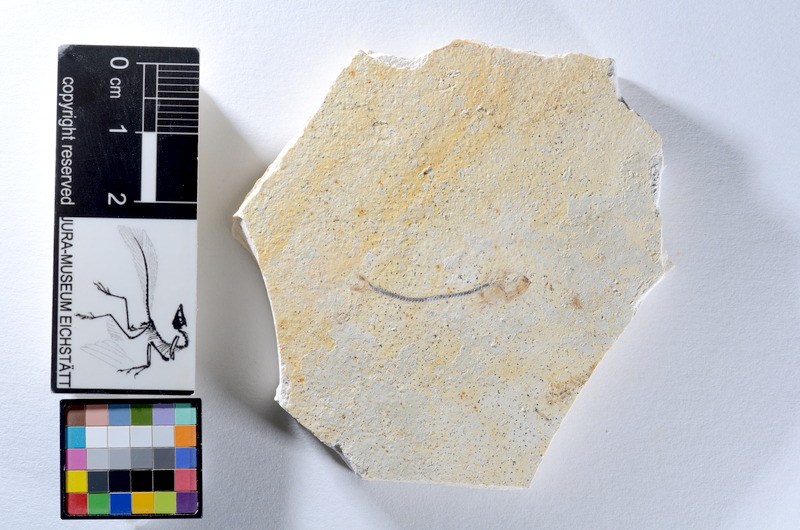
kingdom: Animalia
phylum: Chordata
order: Salmoniformes
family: Orthogonikleithridae
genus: Orthogonikleithrus
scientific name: Orthogonikleithrus hoelli
